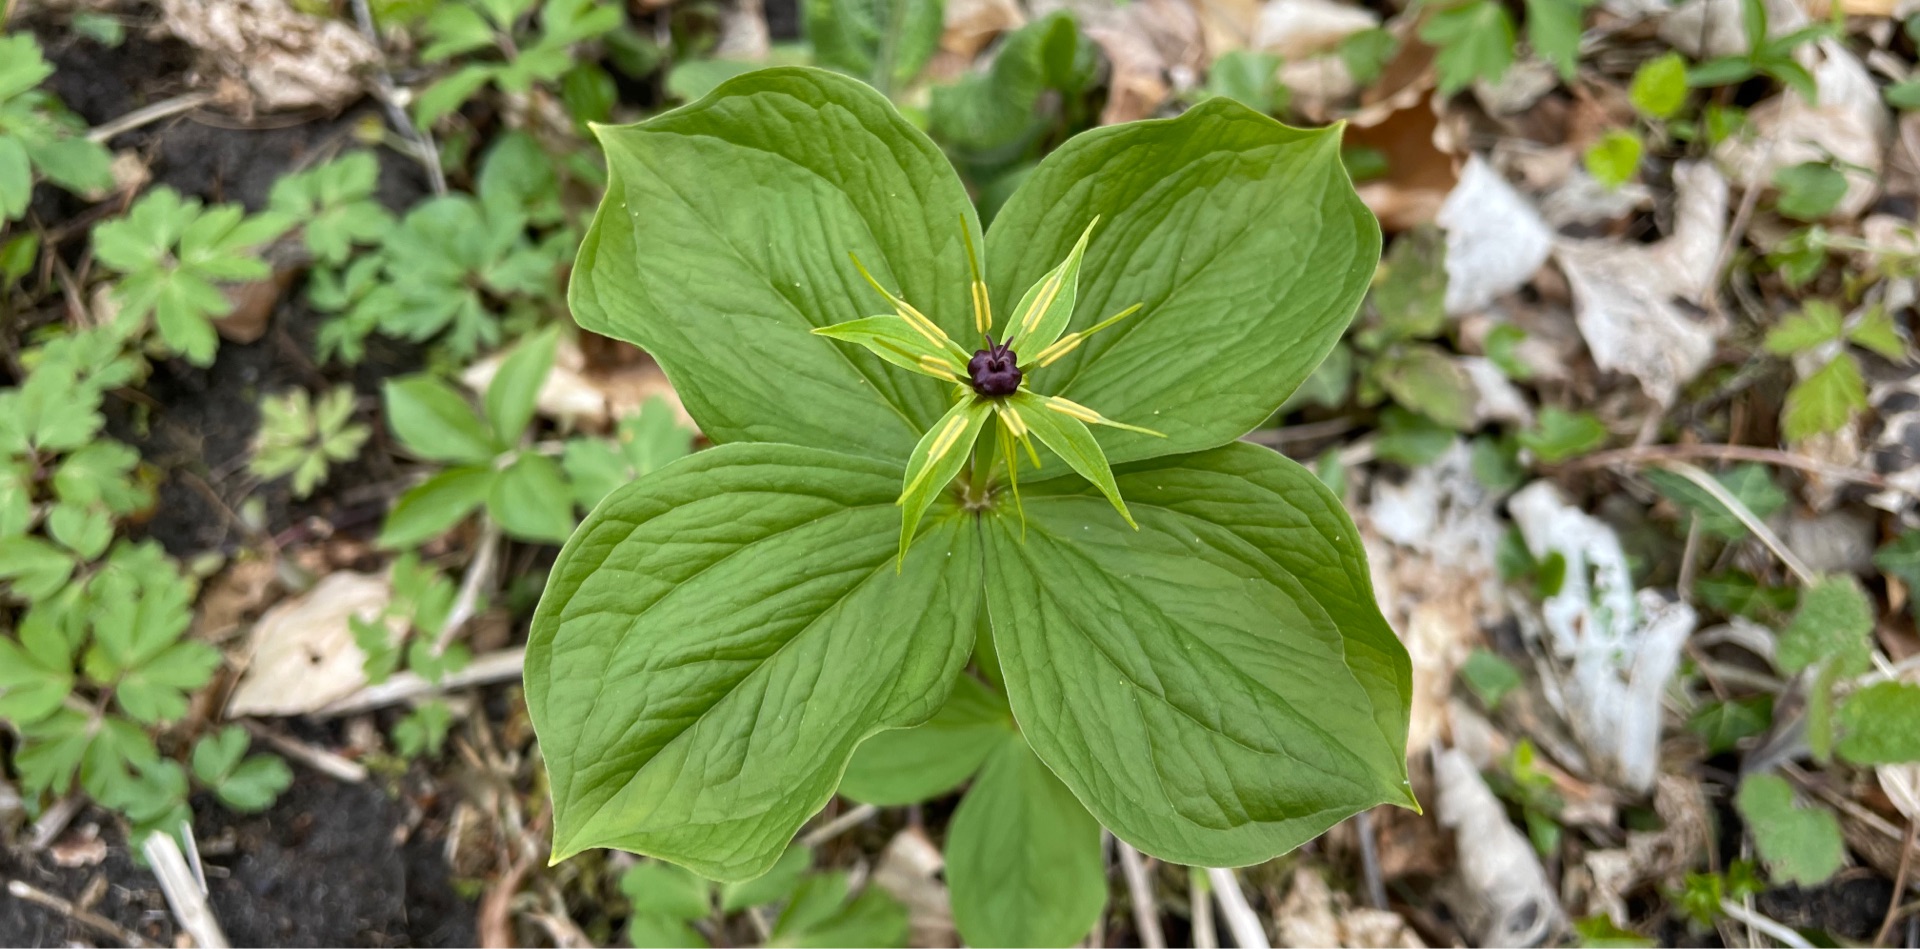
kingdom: Plantae
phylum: Tracheophyta
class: Liliopsida
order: Liliales
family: Melanthiaceae
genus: Paris
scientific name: Paris quadrifolia
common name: Firblad
